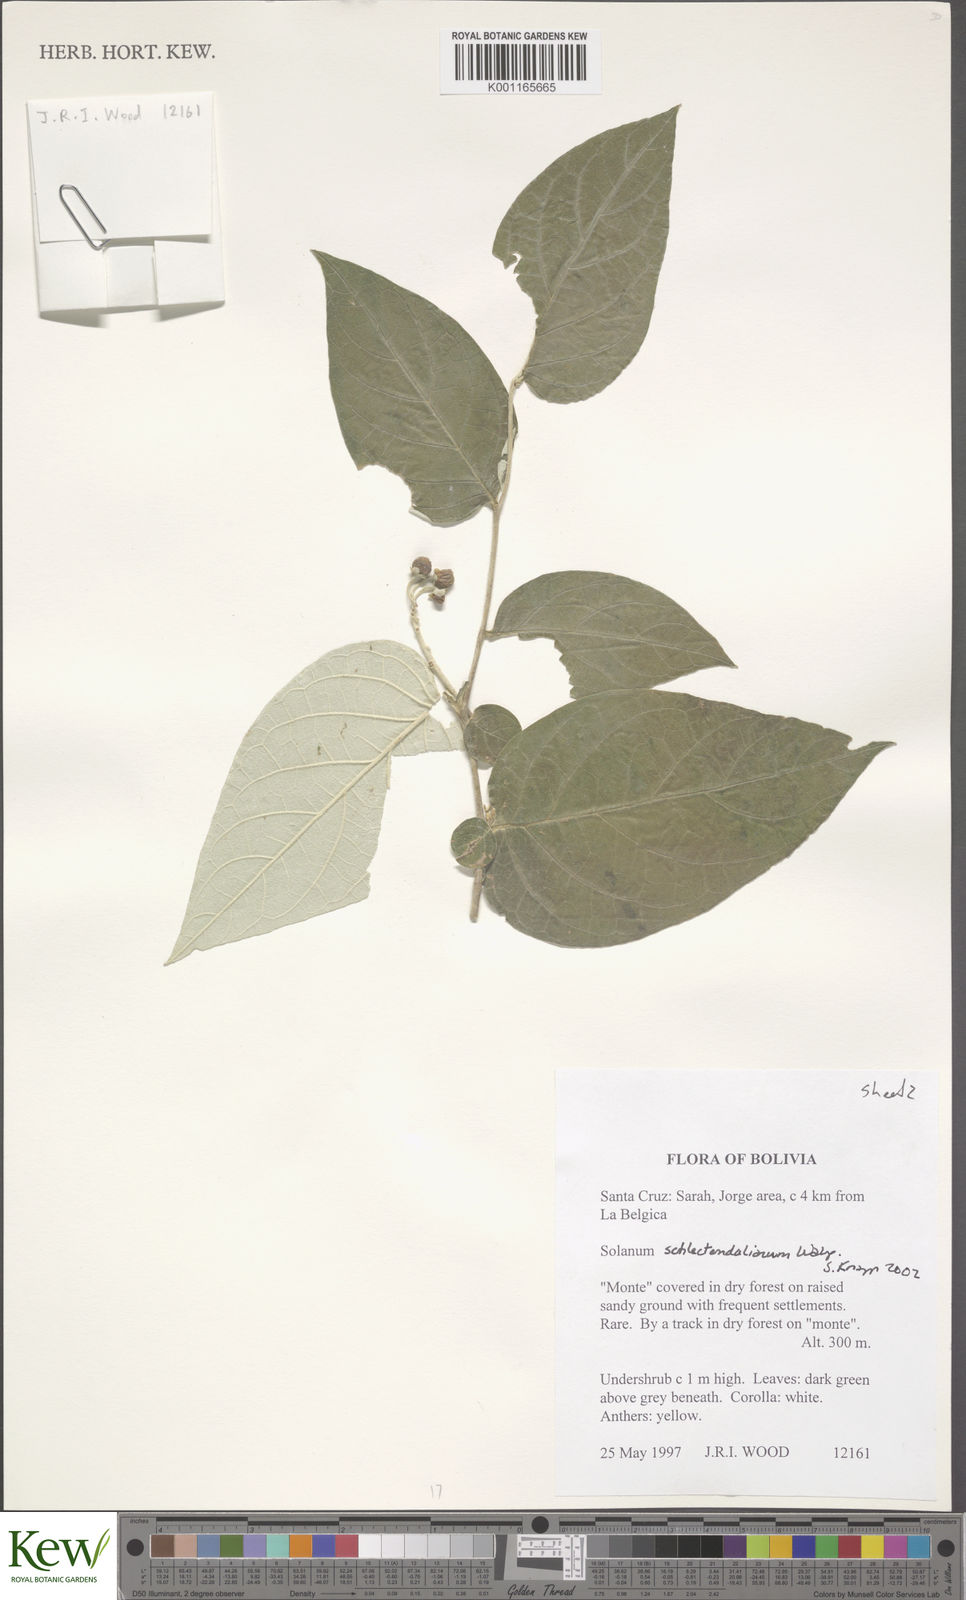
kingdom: Plantae
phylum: Tracheophyta
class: Magnoliopsida
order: Solanales
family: Solanaceae
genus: Solanum
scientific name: Solanum schlechtendalianum
